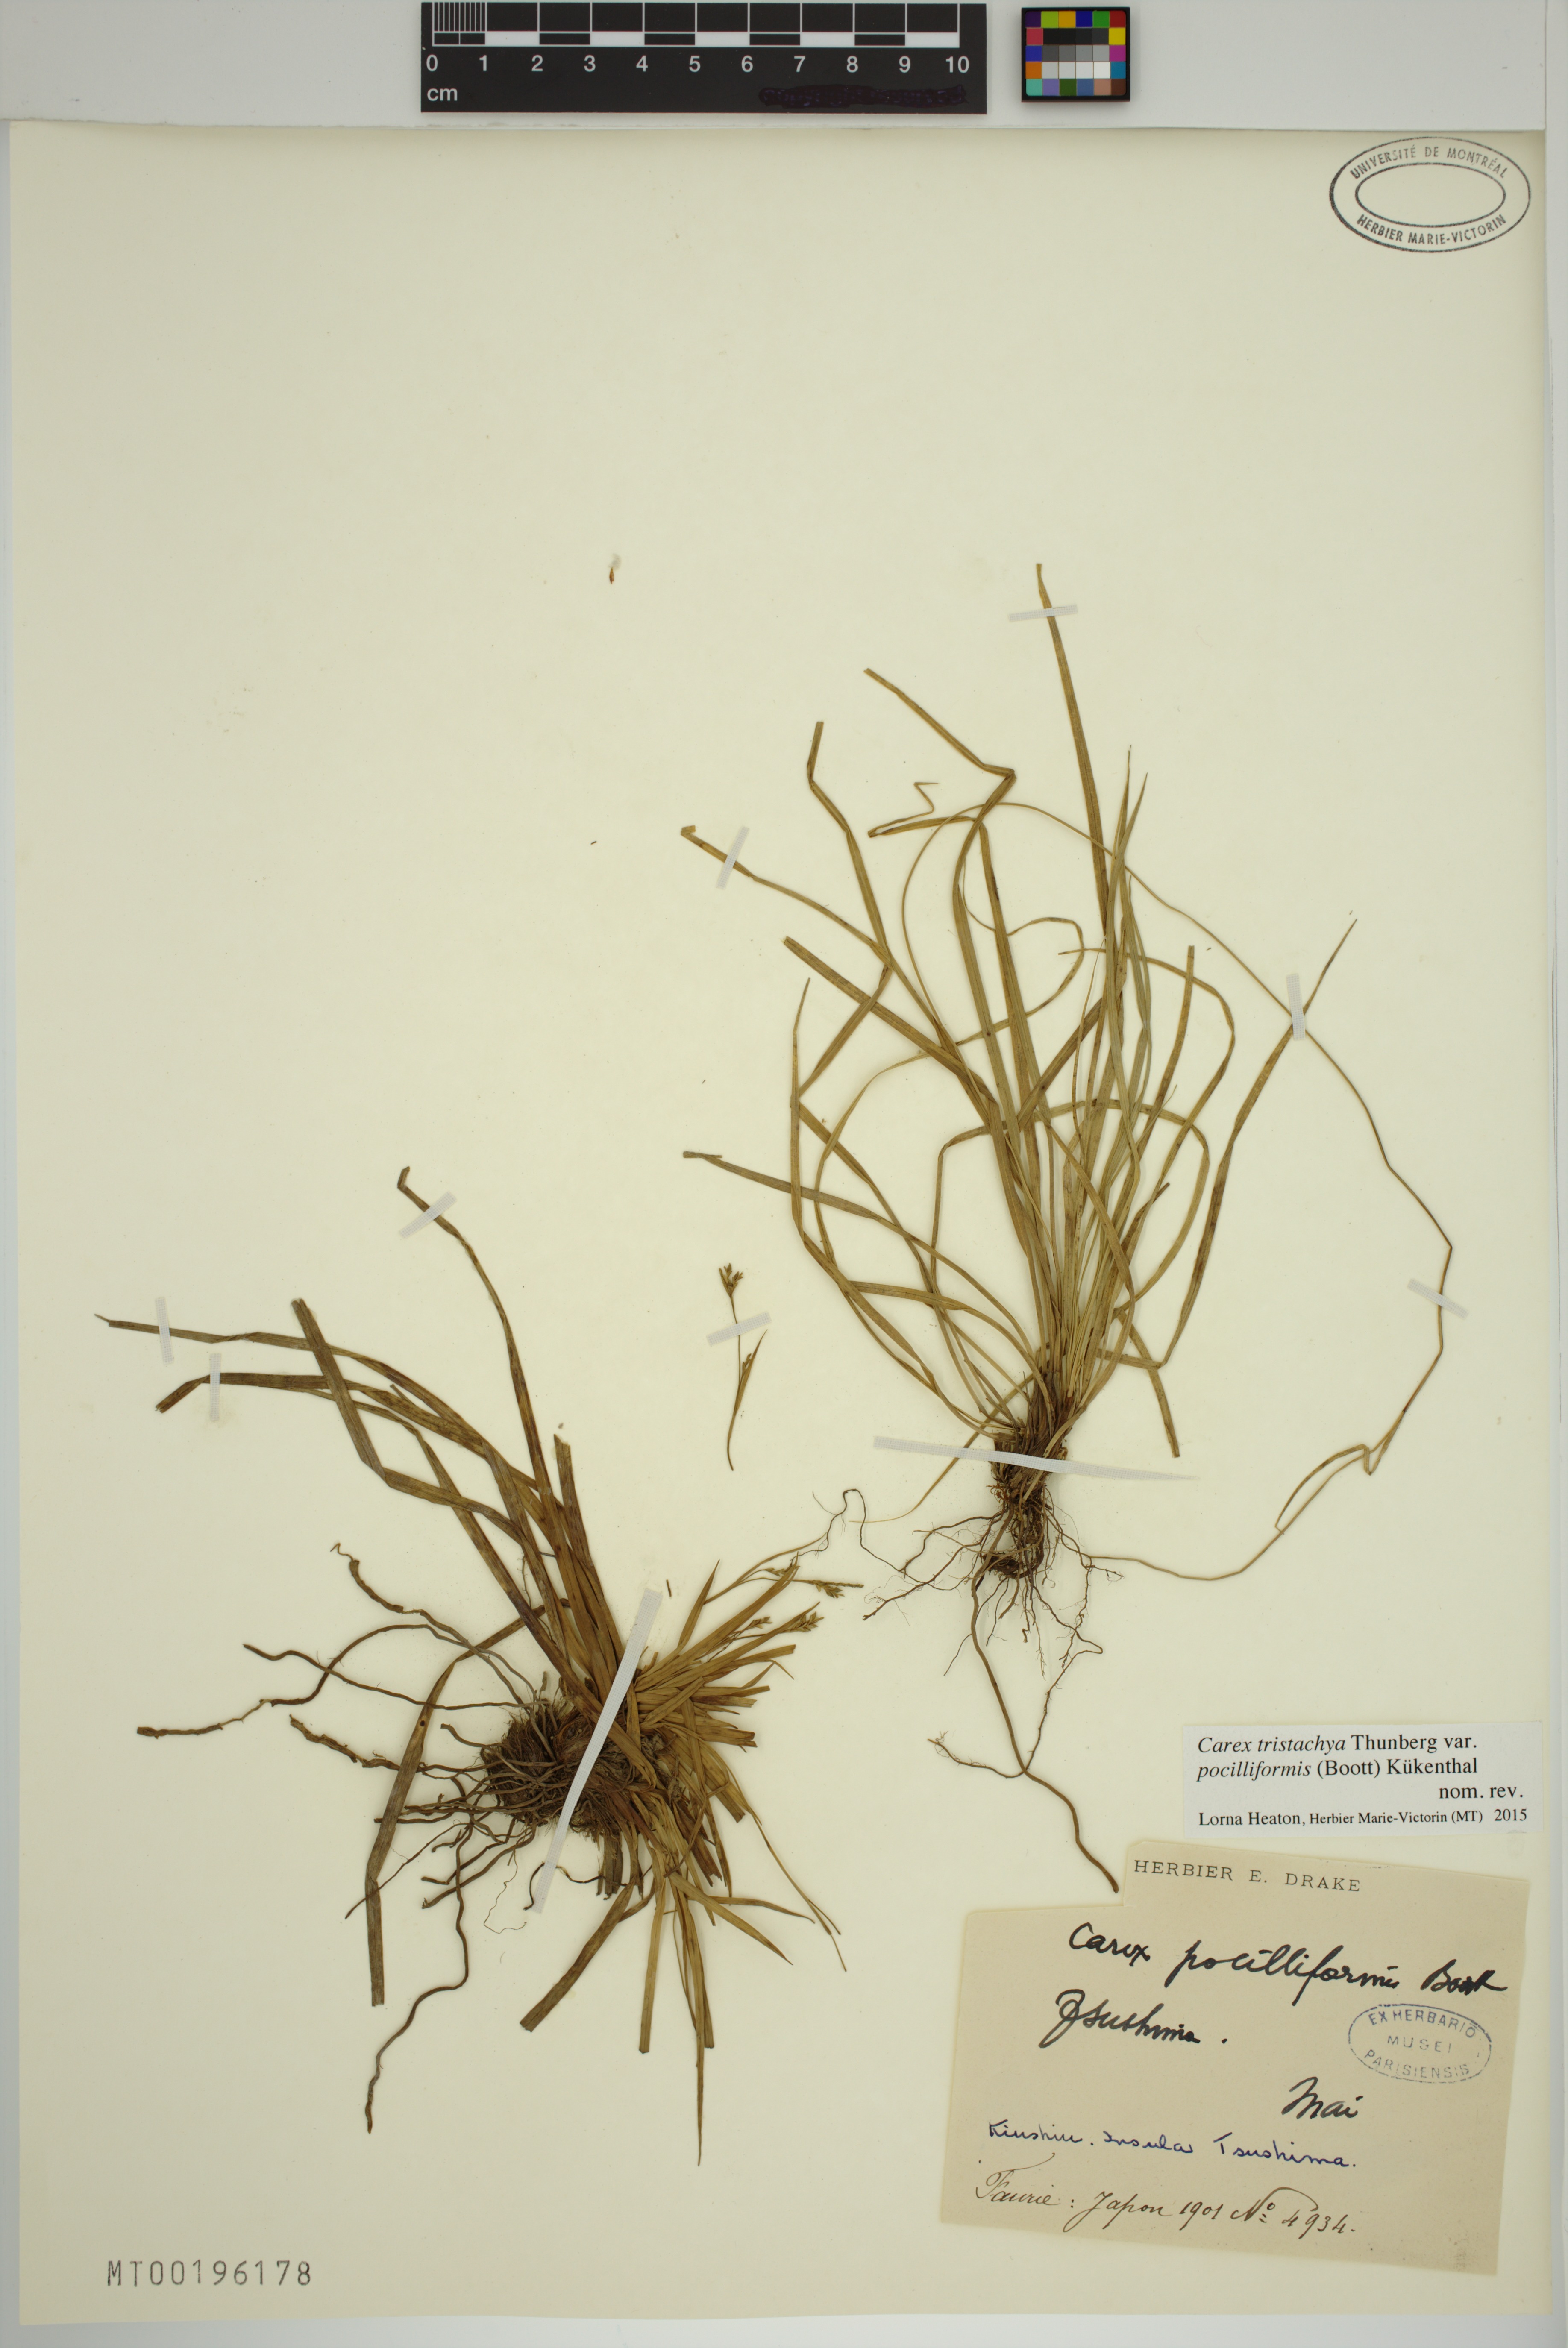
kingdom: Plantae
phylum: Tracheophyta
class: Liliopsida
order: Poales
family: Cyperaceae
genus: Carex
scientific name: Carex tristachya
